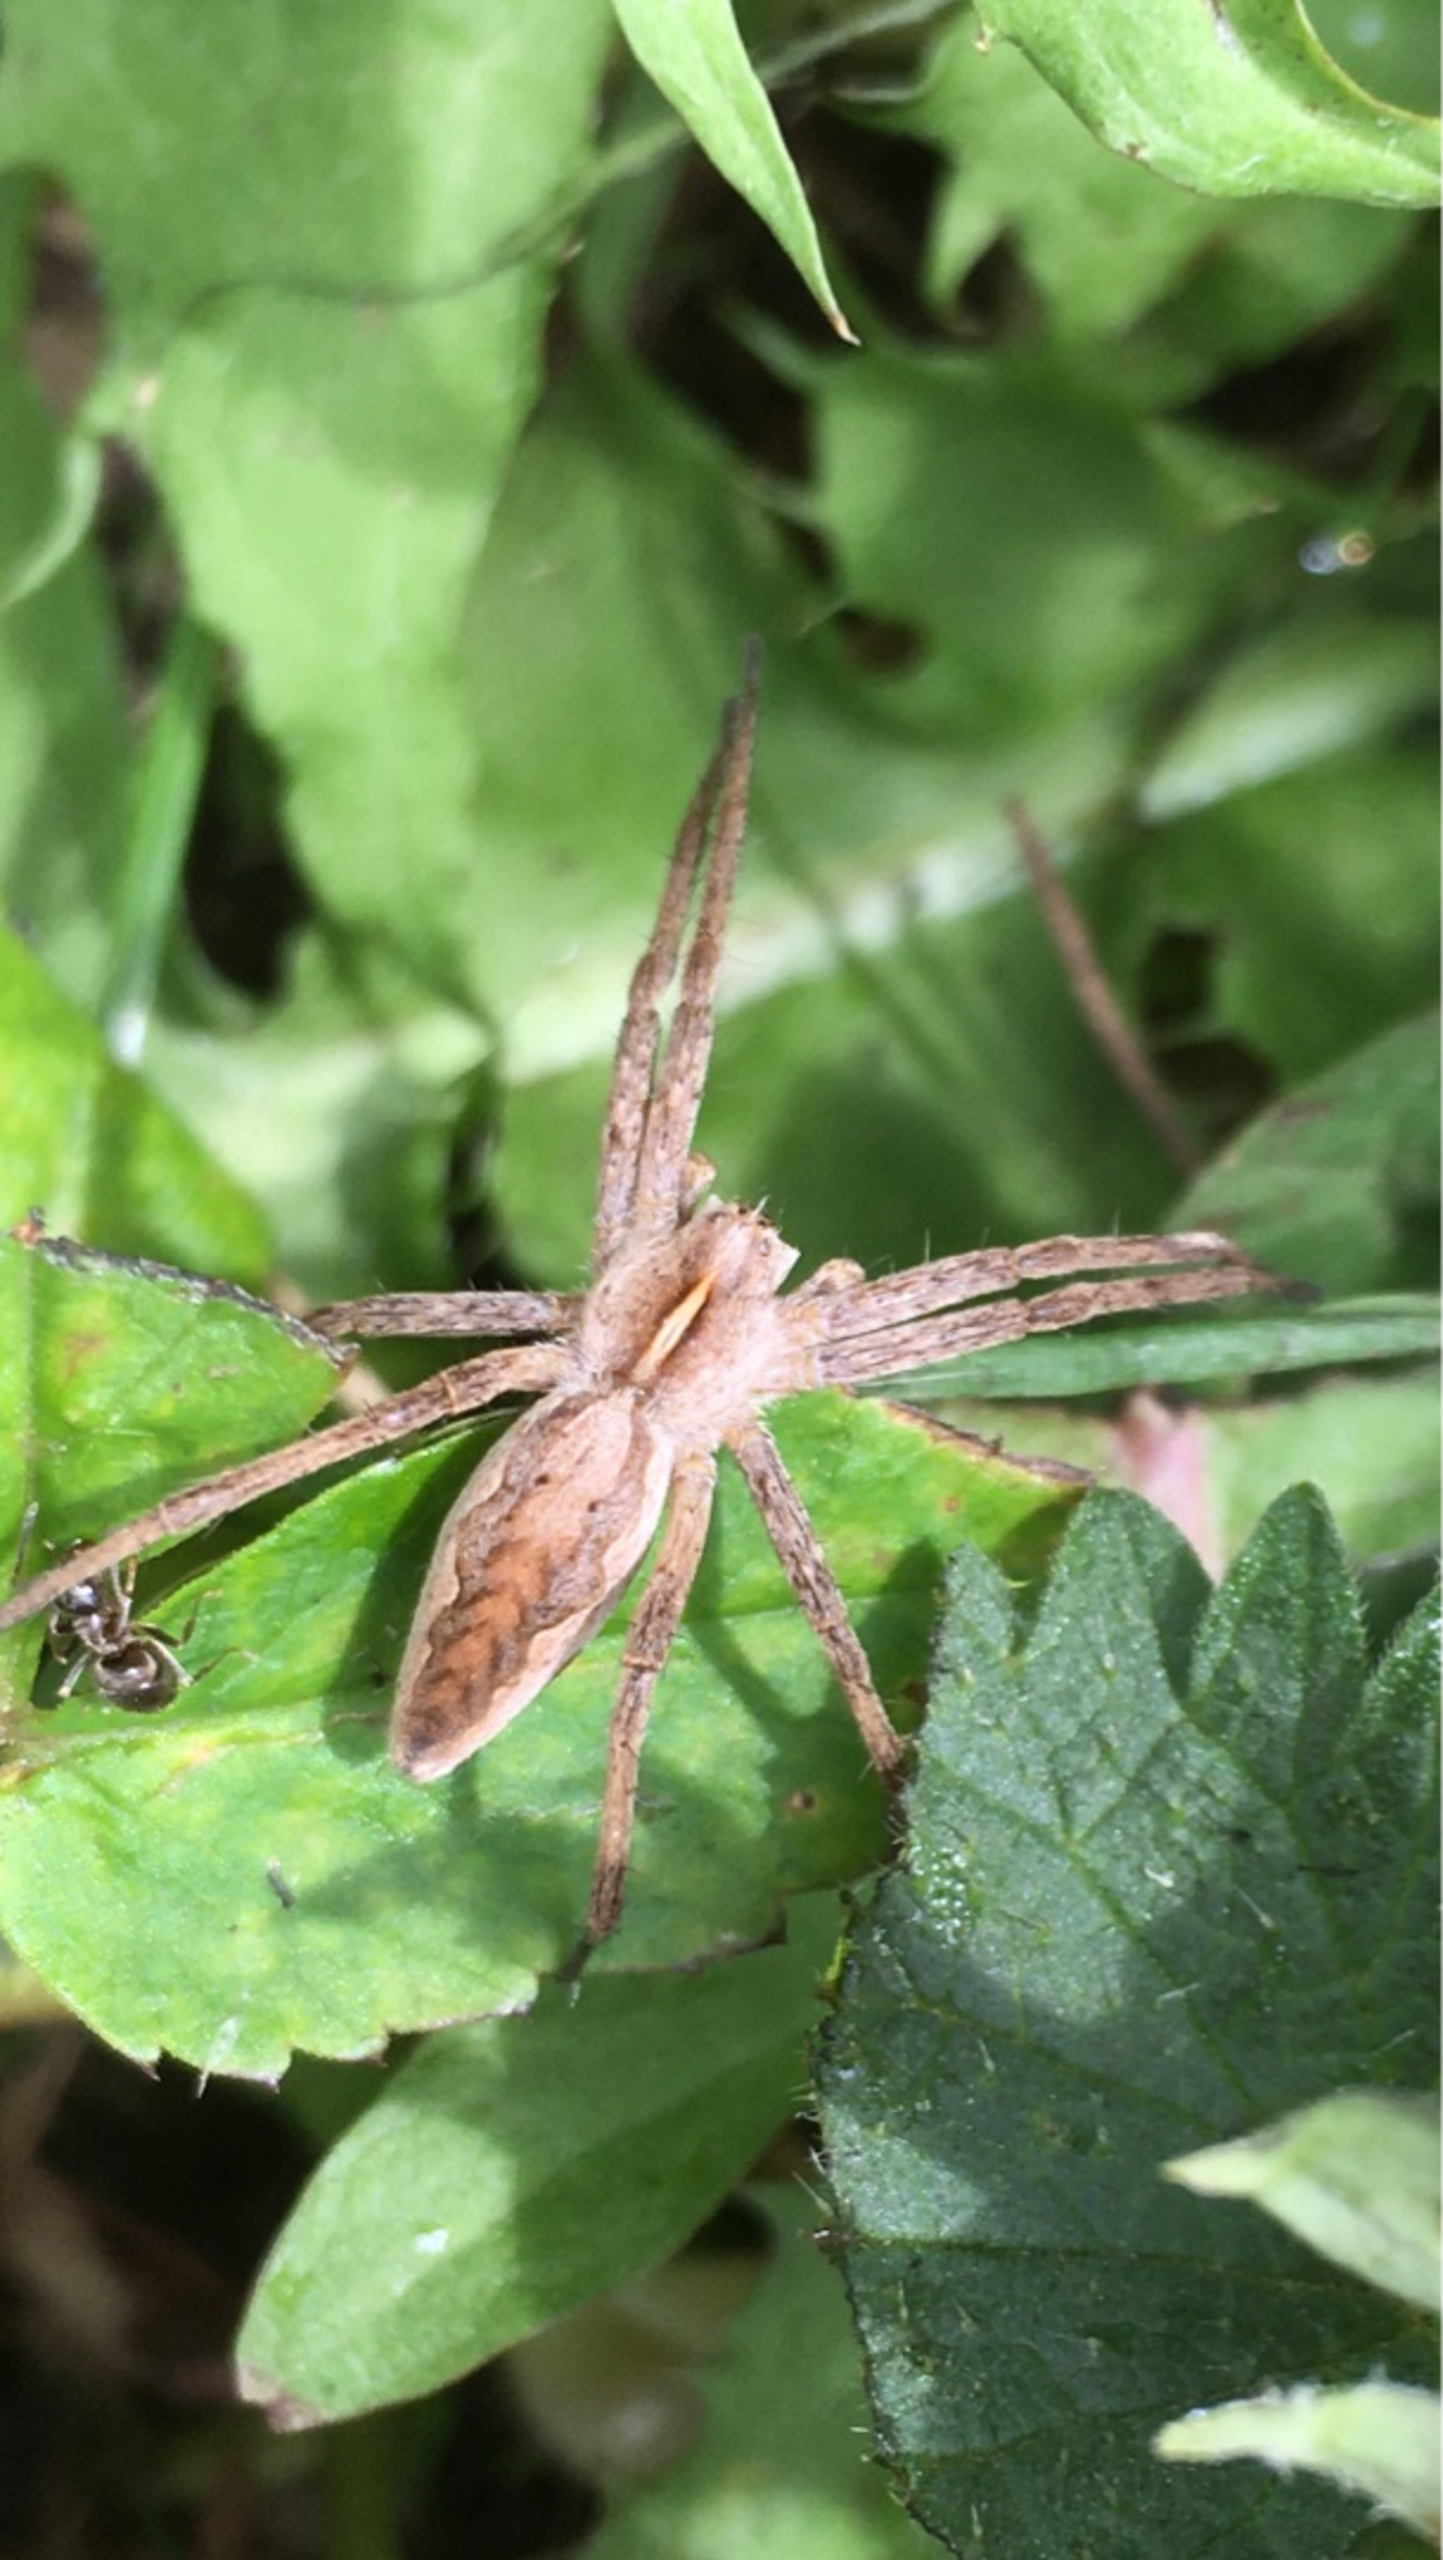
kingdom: Animalia
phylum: Arthropoda
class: Arachnida
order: Araneae
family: Pisauridae
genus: Pisaura
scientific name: Pisaura mirabilis
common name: Almindelig rovedderkop
